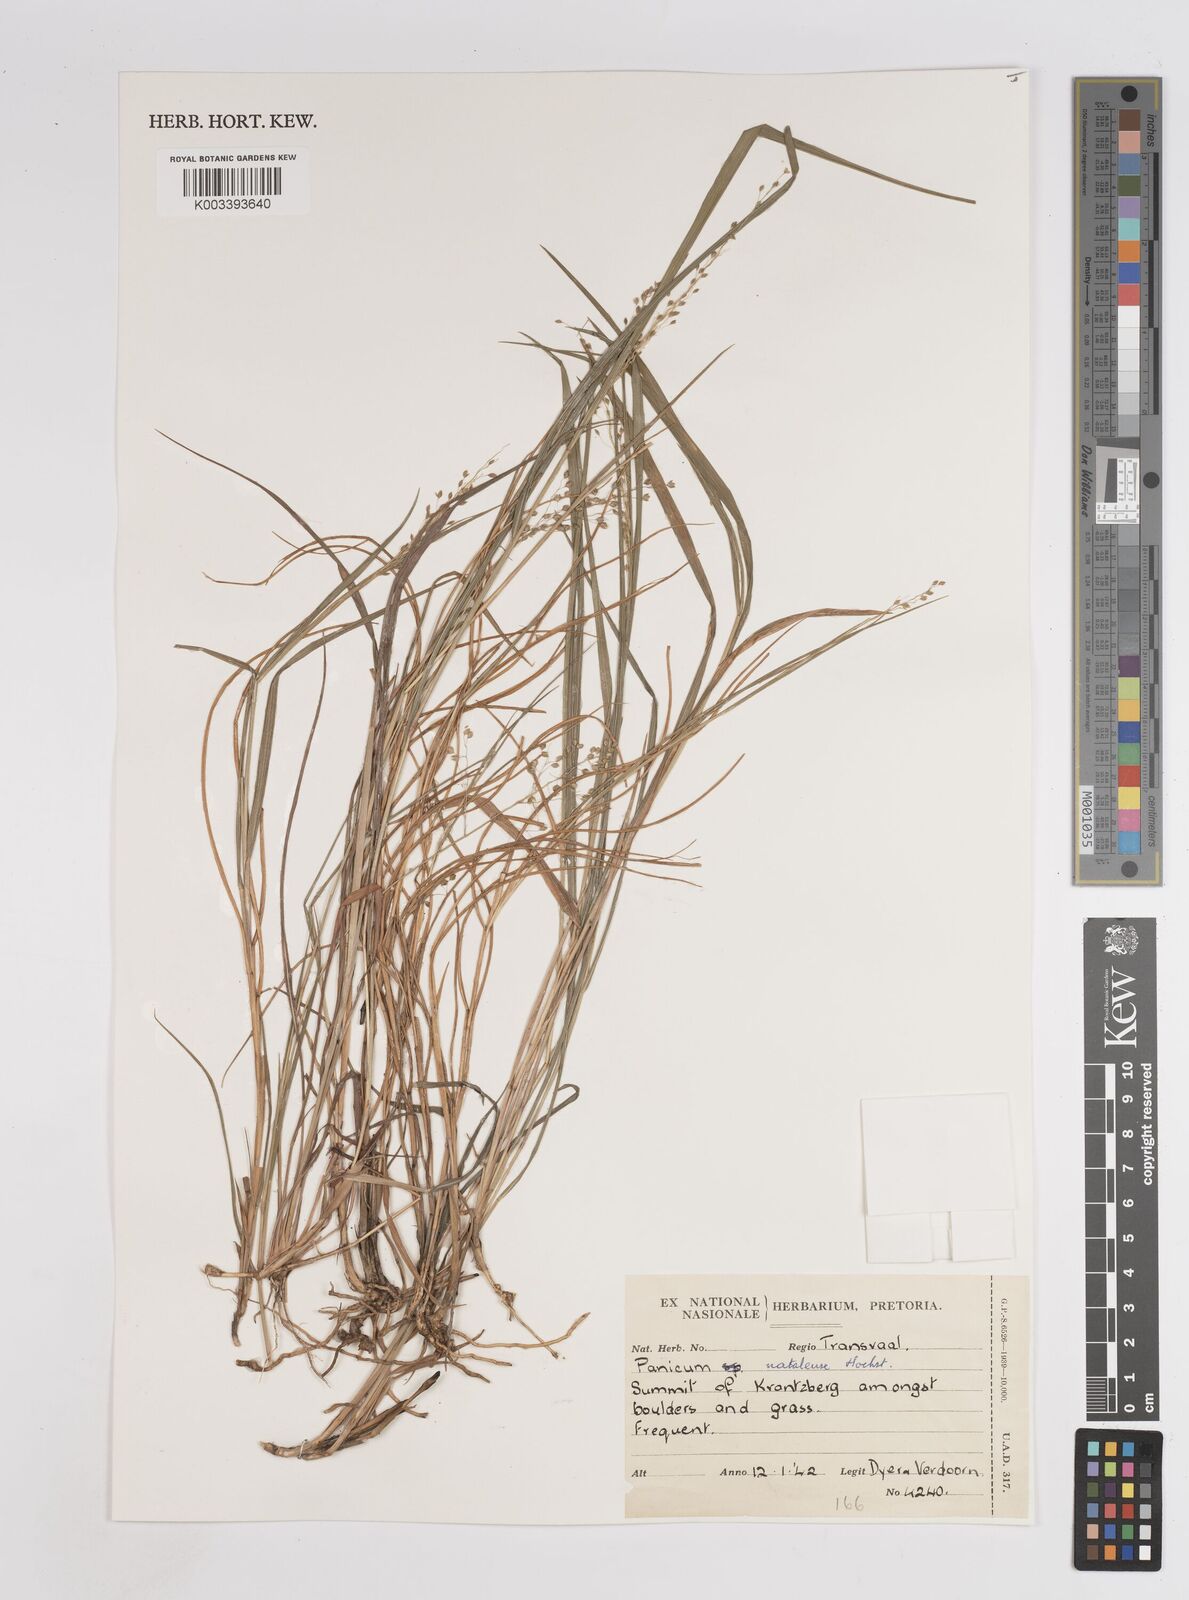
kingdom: Plantae
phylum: Tracheophyta
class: Liliopsida
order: Poales
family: Poaceae
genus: Trichanthecium
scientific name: Trichanthecium natalense
